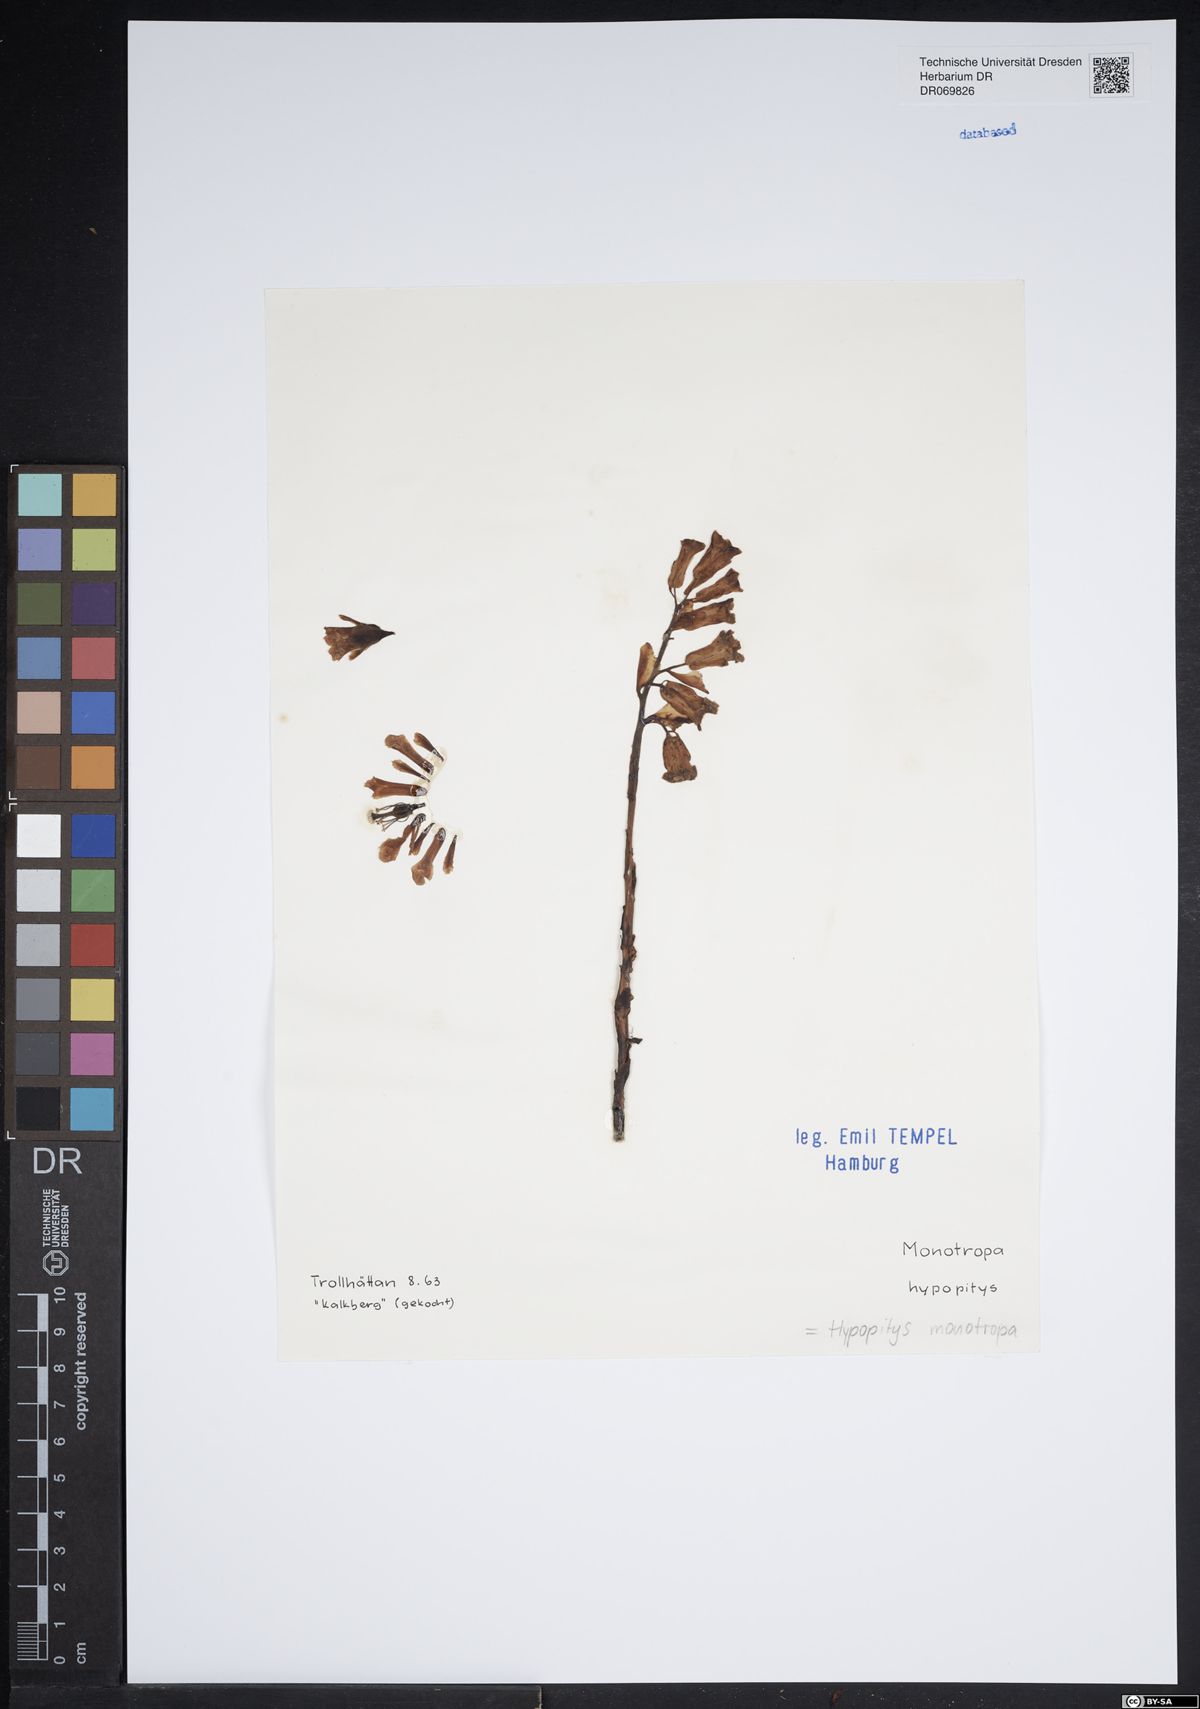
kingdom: Plantae
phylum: Tracheophyta
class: Magnoliopsida
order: Ericales
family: Ericaceae
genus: Hypopitys
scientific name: Hypopitys monotropa
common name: Yellow bird's-nest
